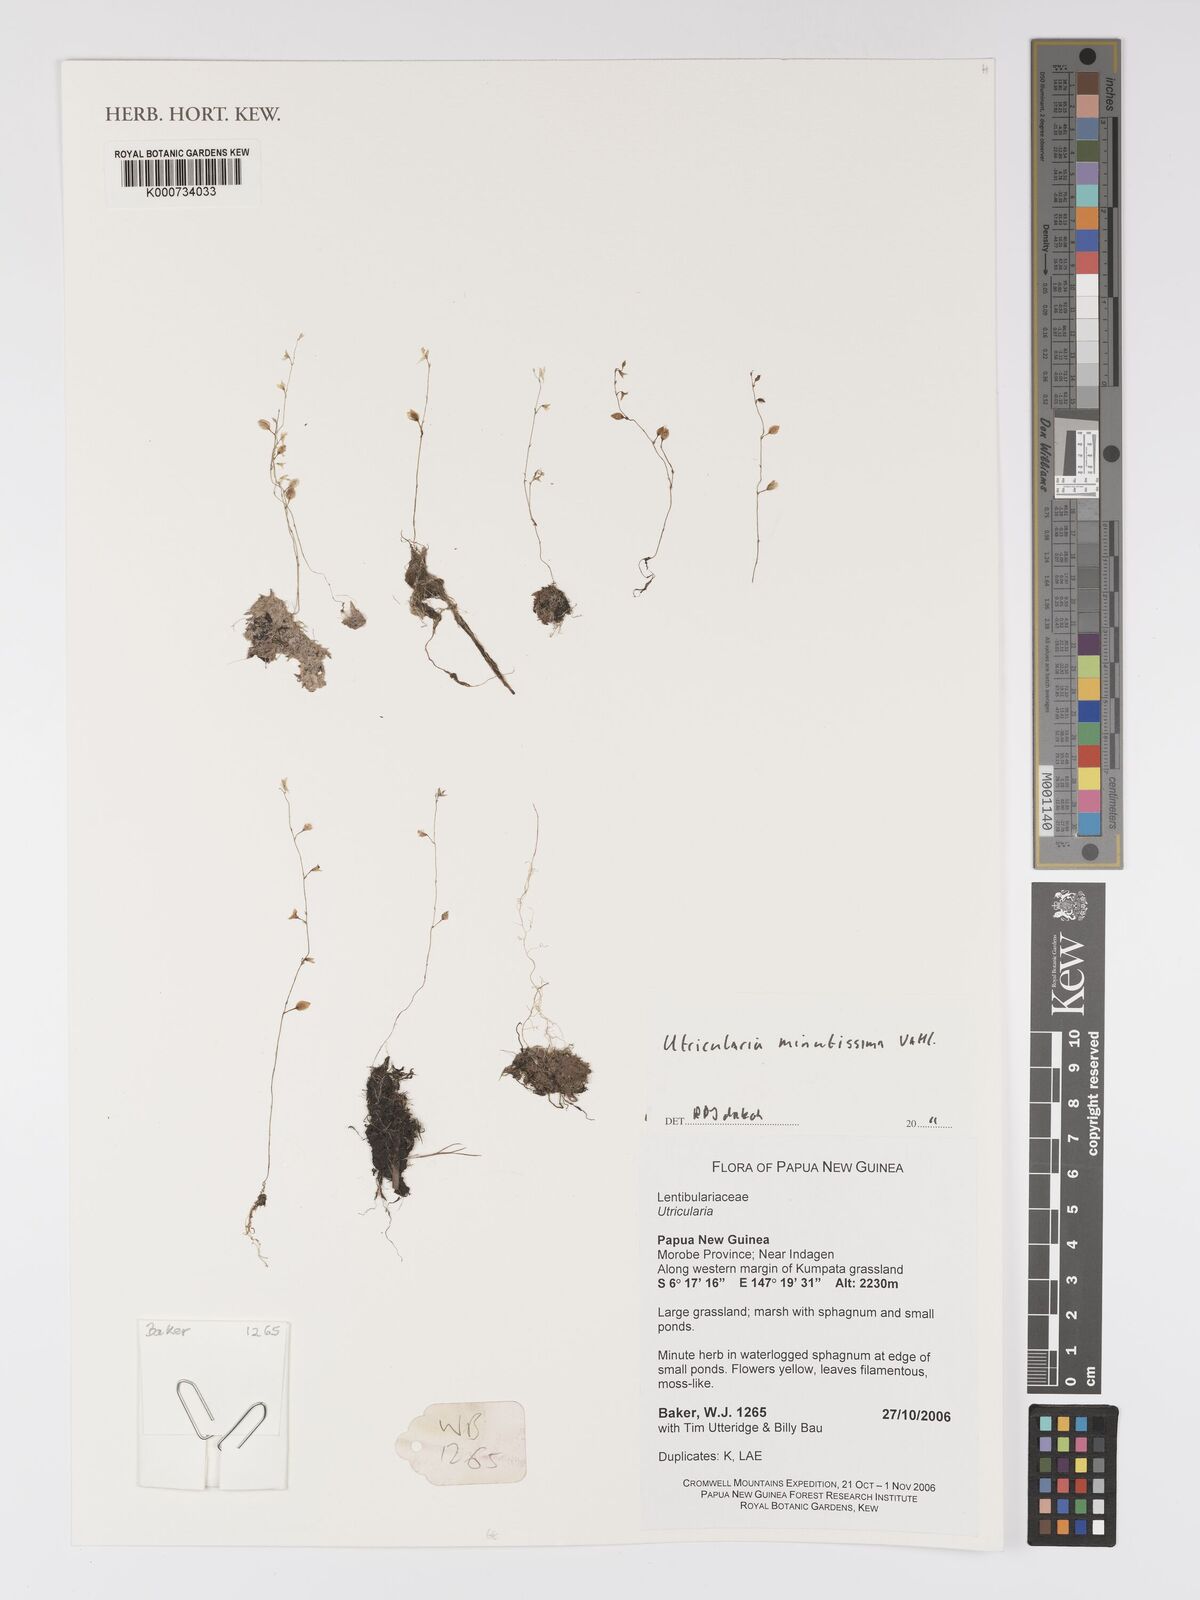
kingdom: Plantae
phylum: Tracheophyta
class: Magnoliopsida
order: Lamiales
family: Lentibulariaceae
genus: Utricularia
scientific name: Utricularia minutissima
